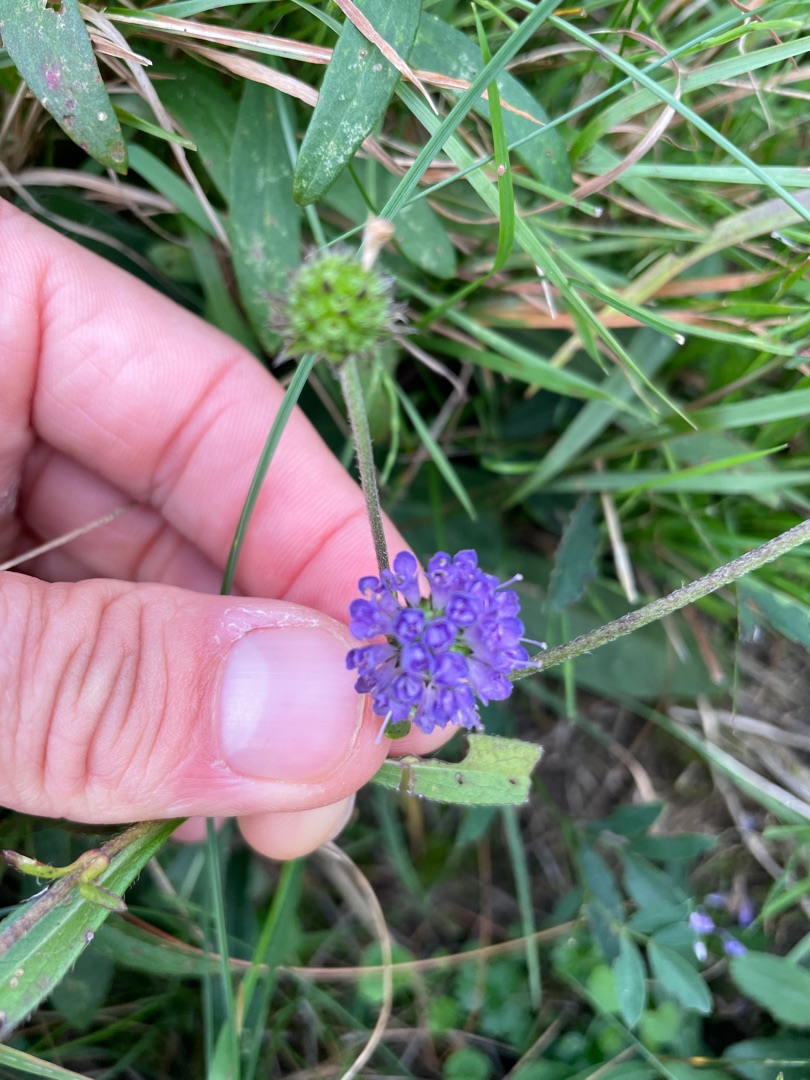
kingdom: Plantae
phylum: Tracheophyta
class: Magnoliopsida
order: Dipsacales
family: Caprifoliaceae
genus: Succisa
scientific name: Succisa pratensis
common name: Djævelsbid
